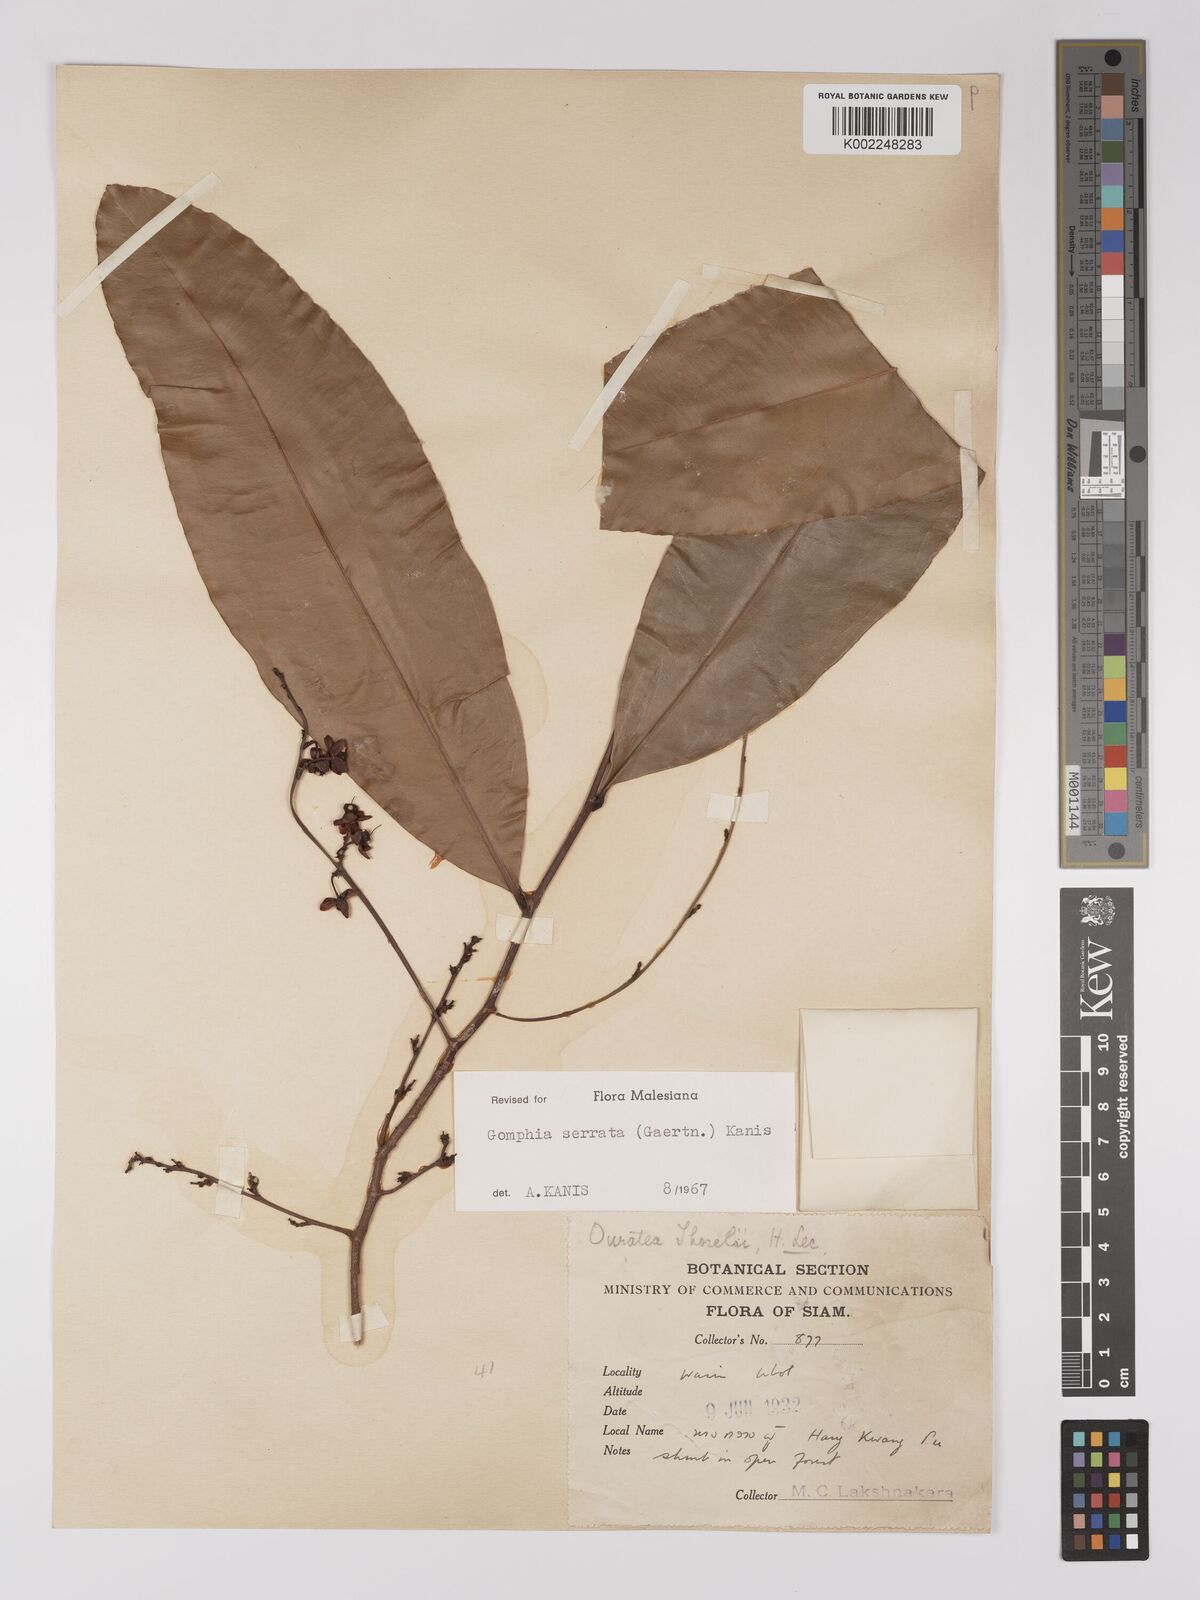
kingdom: Plantae
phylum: Tracheophyta
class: Magnoliopsida
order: Malpighiales
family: Ochnaceae
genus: Gomphia
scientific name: Gomphia serrata
